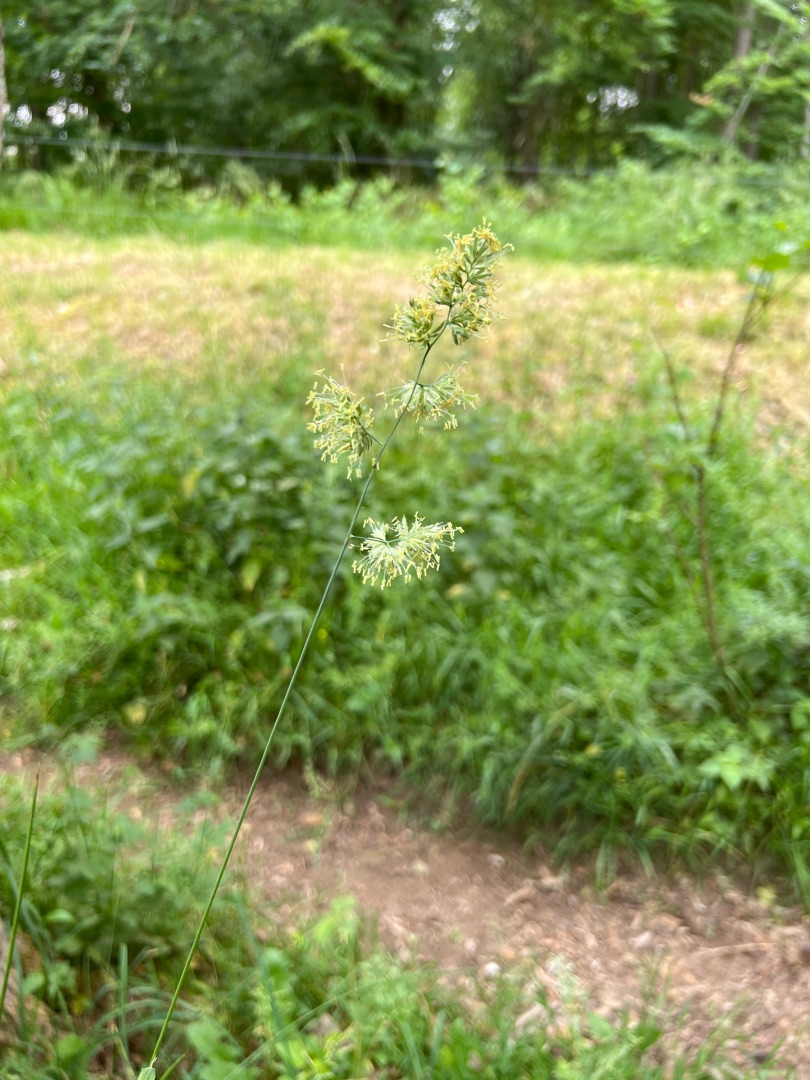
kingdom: Plantae
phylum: Tracheophyta
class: Liliopsida
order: Poales
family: Poaceae
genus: Dactylis
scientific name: Dactylis glomerata
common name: Almindelig hundegræs
